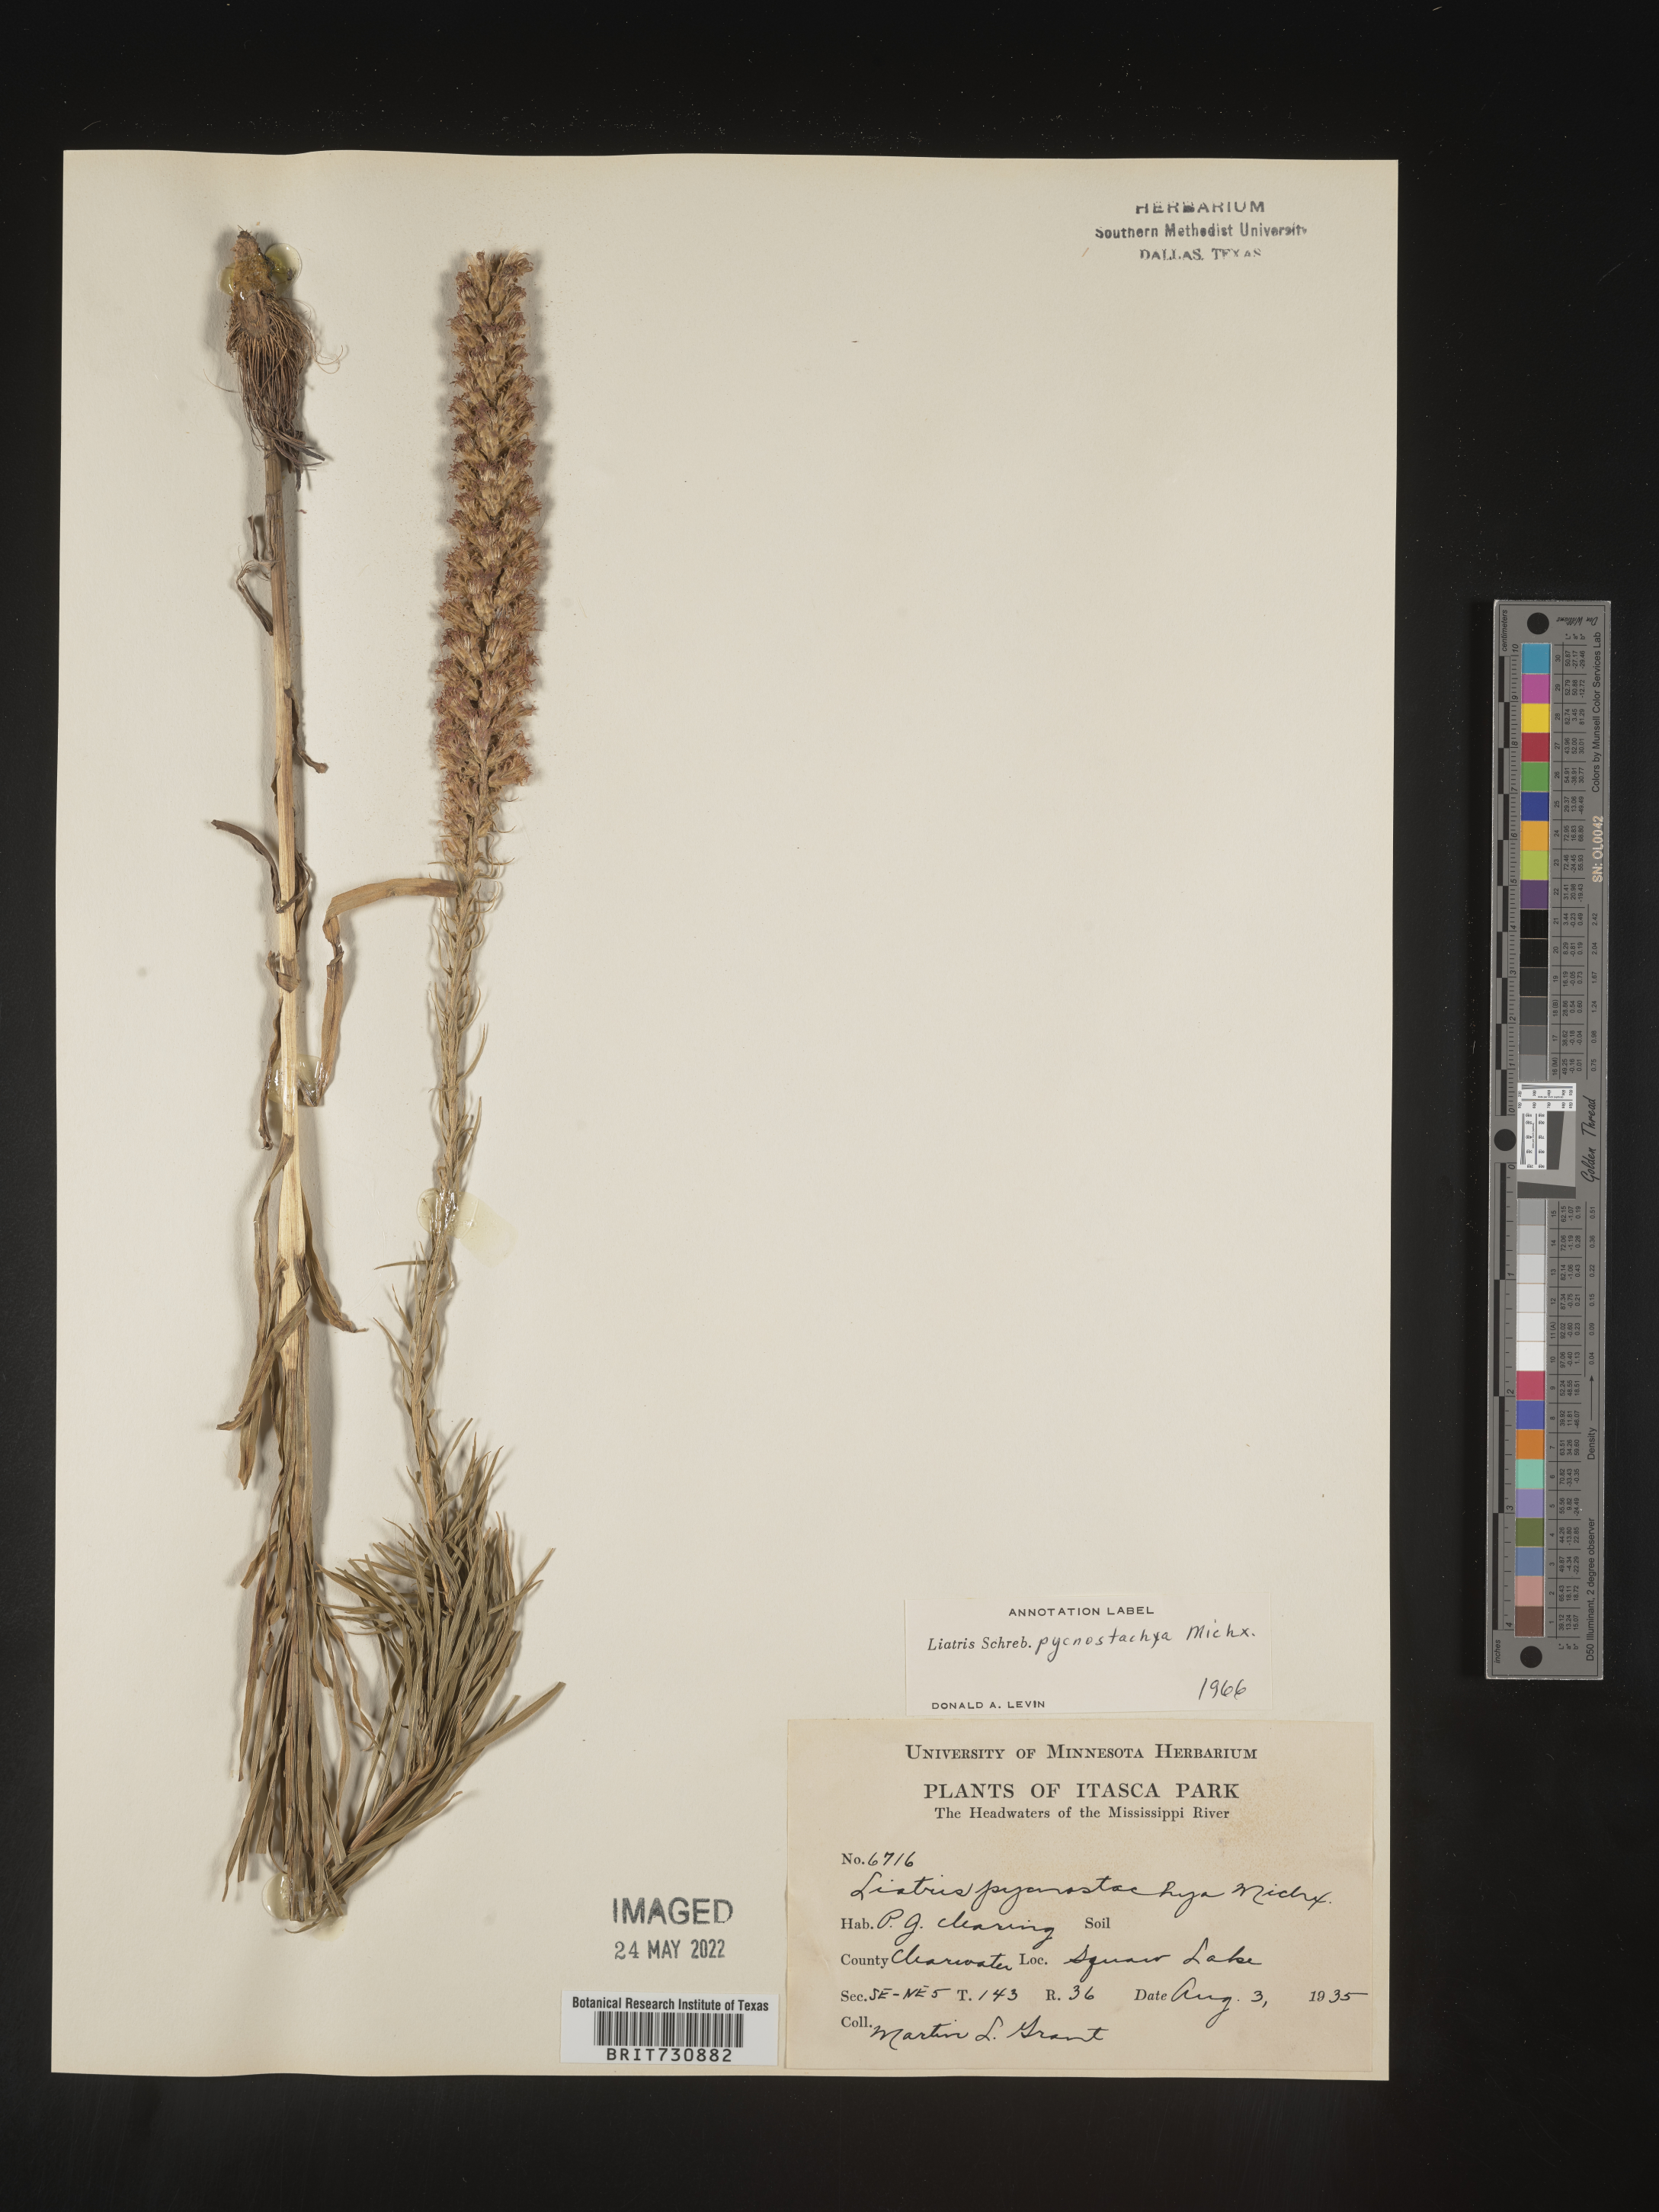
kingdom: Plantae
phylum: Tracheophyta
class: Magnoliopsida
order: Asterales
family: Asteraceae
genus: Liatris
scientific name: Liatris pycnostachya
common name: Cattail gayfeather
